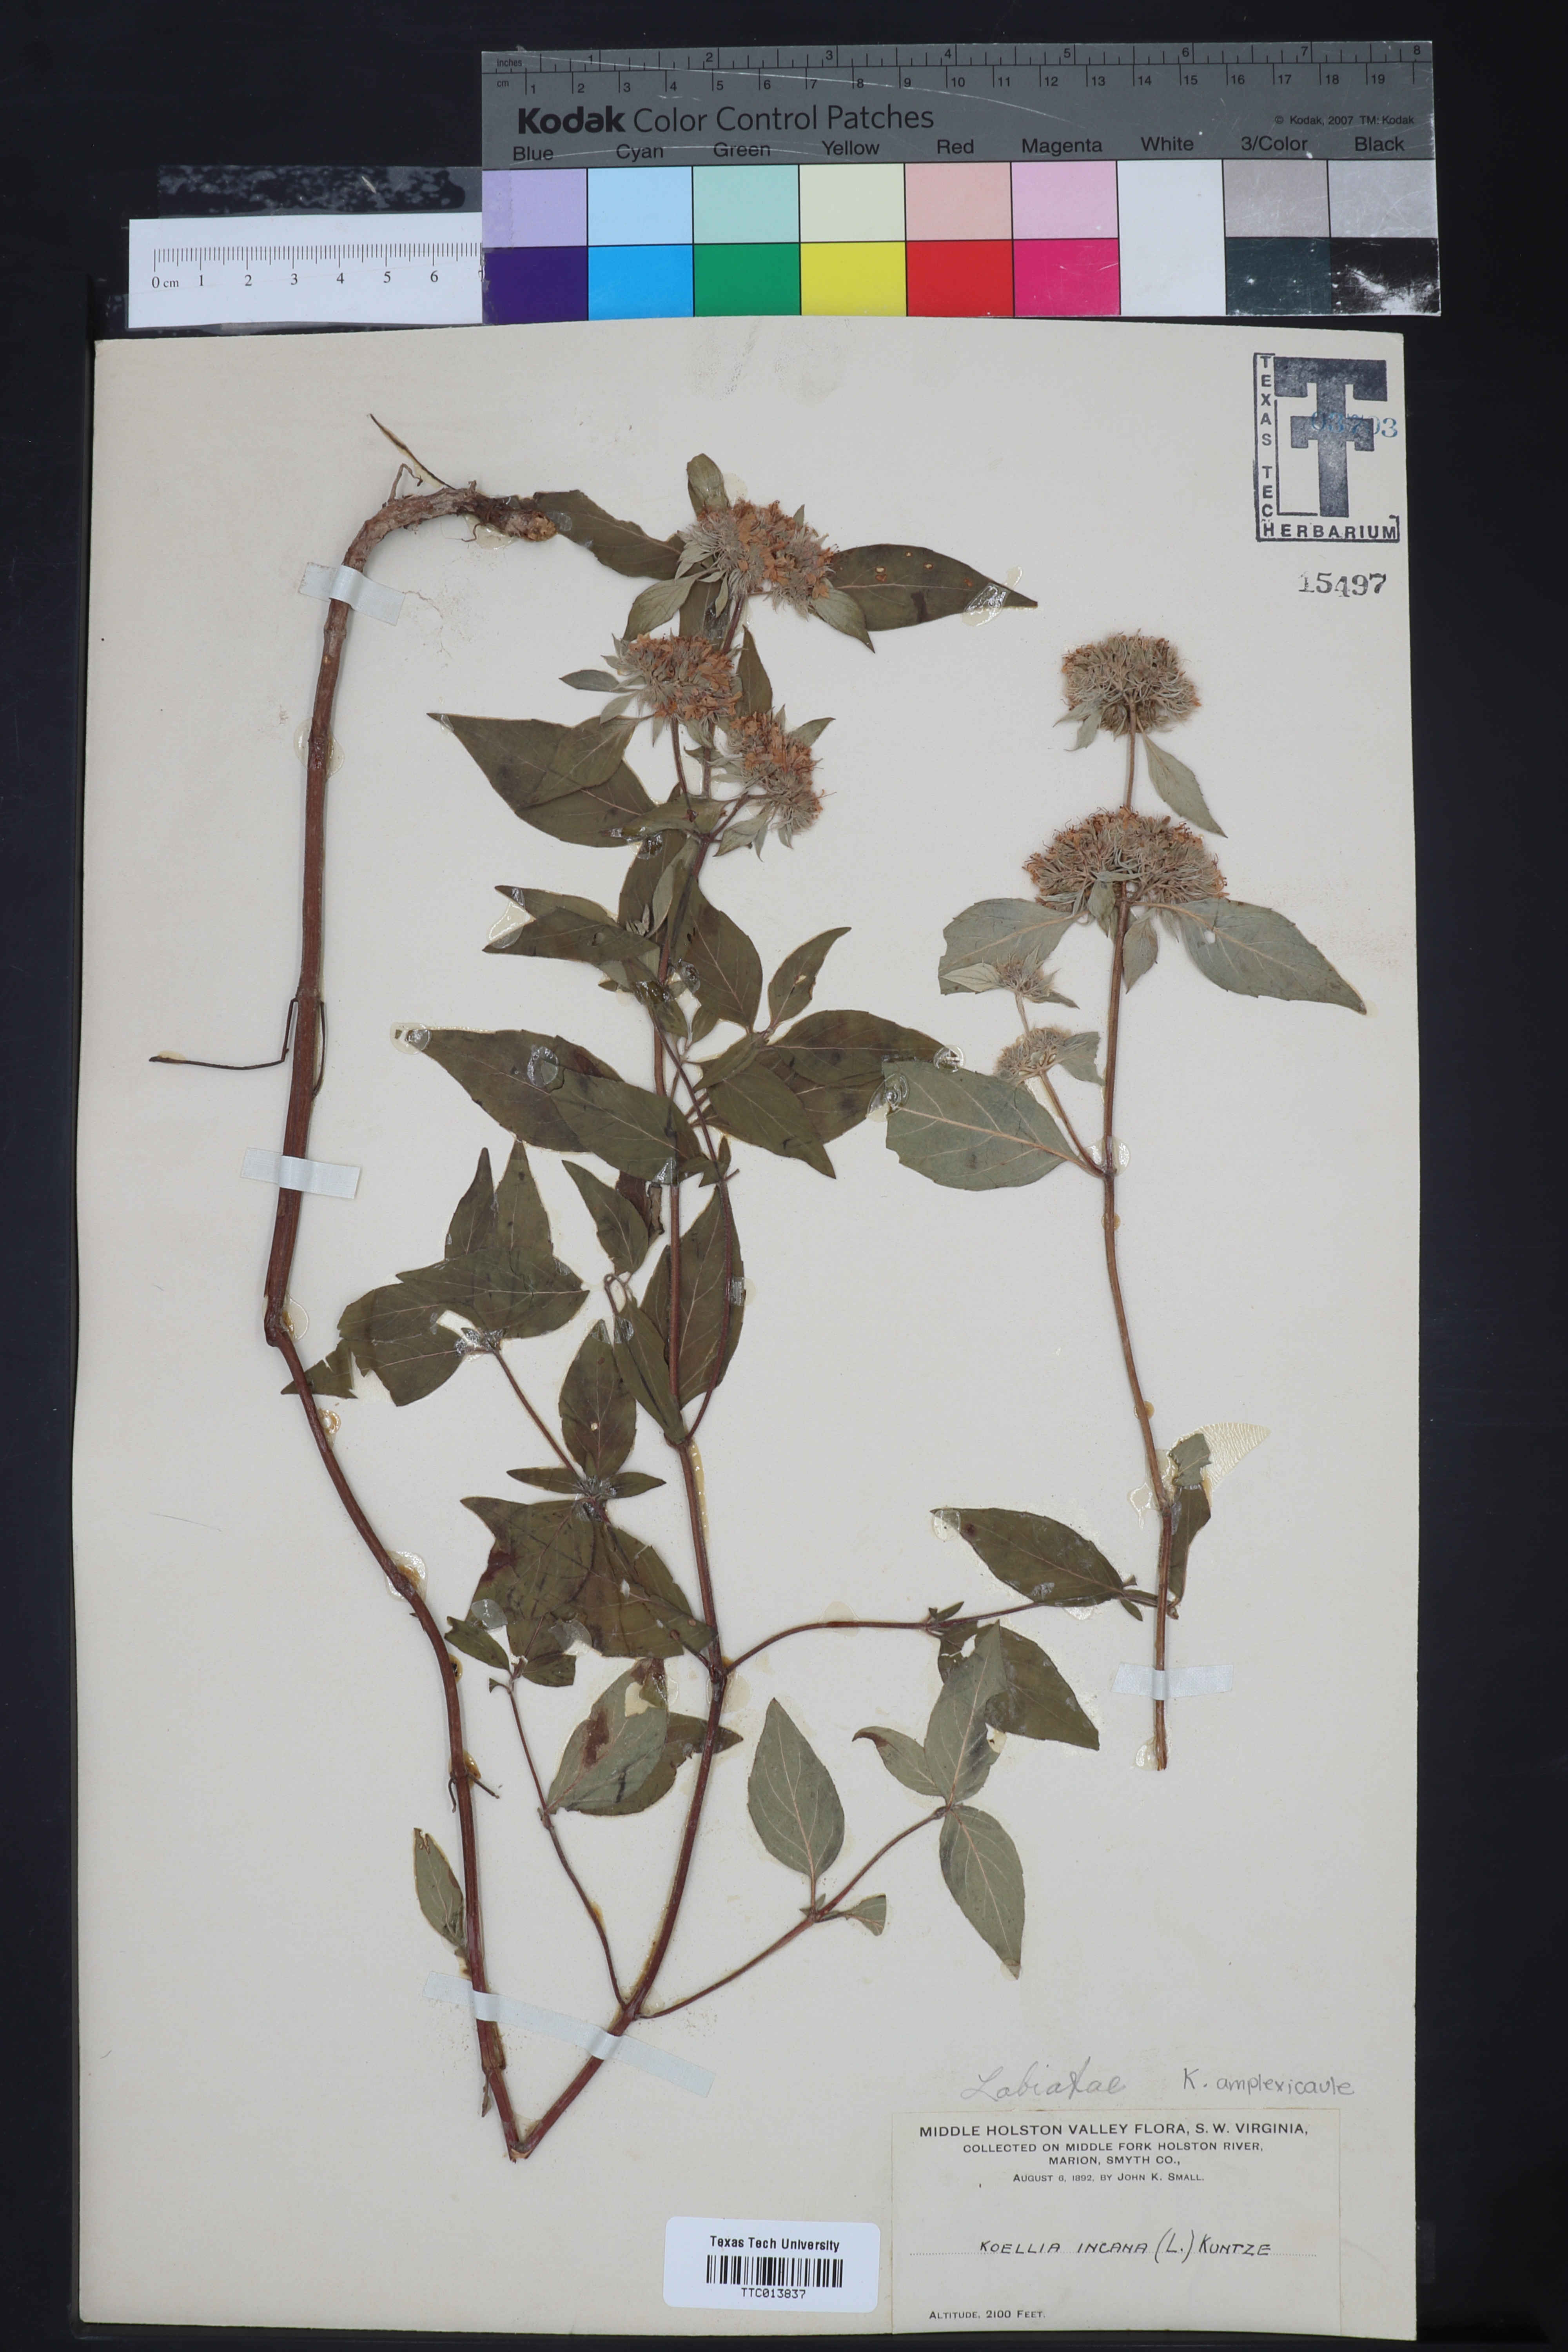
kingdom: Plantae
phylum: Tracheophyta
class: Magnoliopsida
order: Lamiales
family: Lamiaceae
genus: Pycnanthemum
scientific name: Pycnanthemum incanum
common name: Hoary mountain-mint
